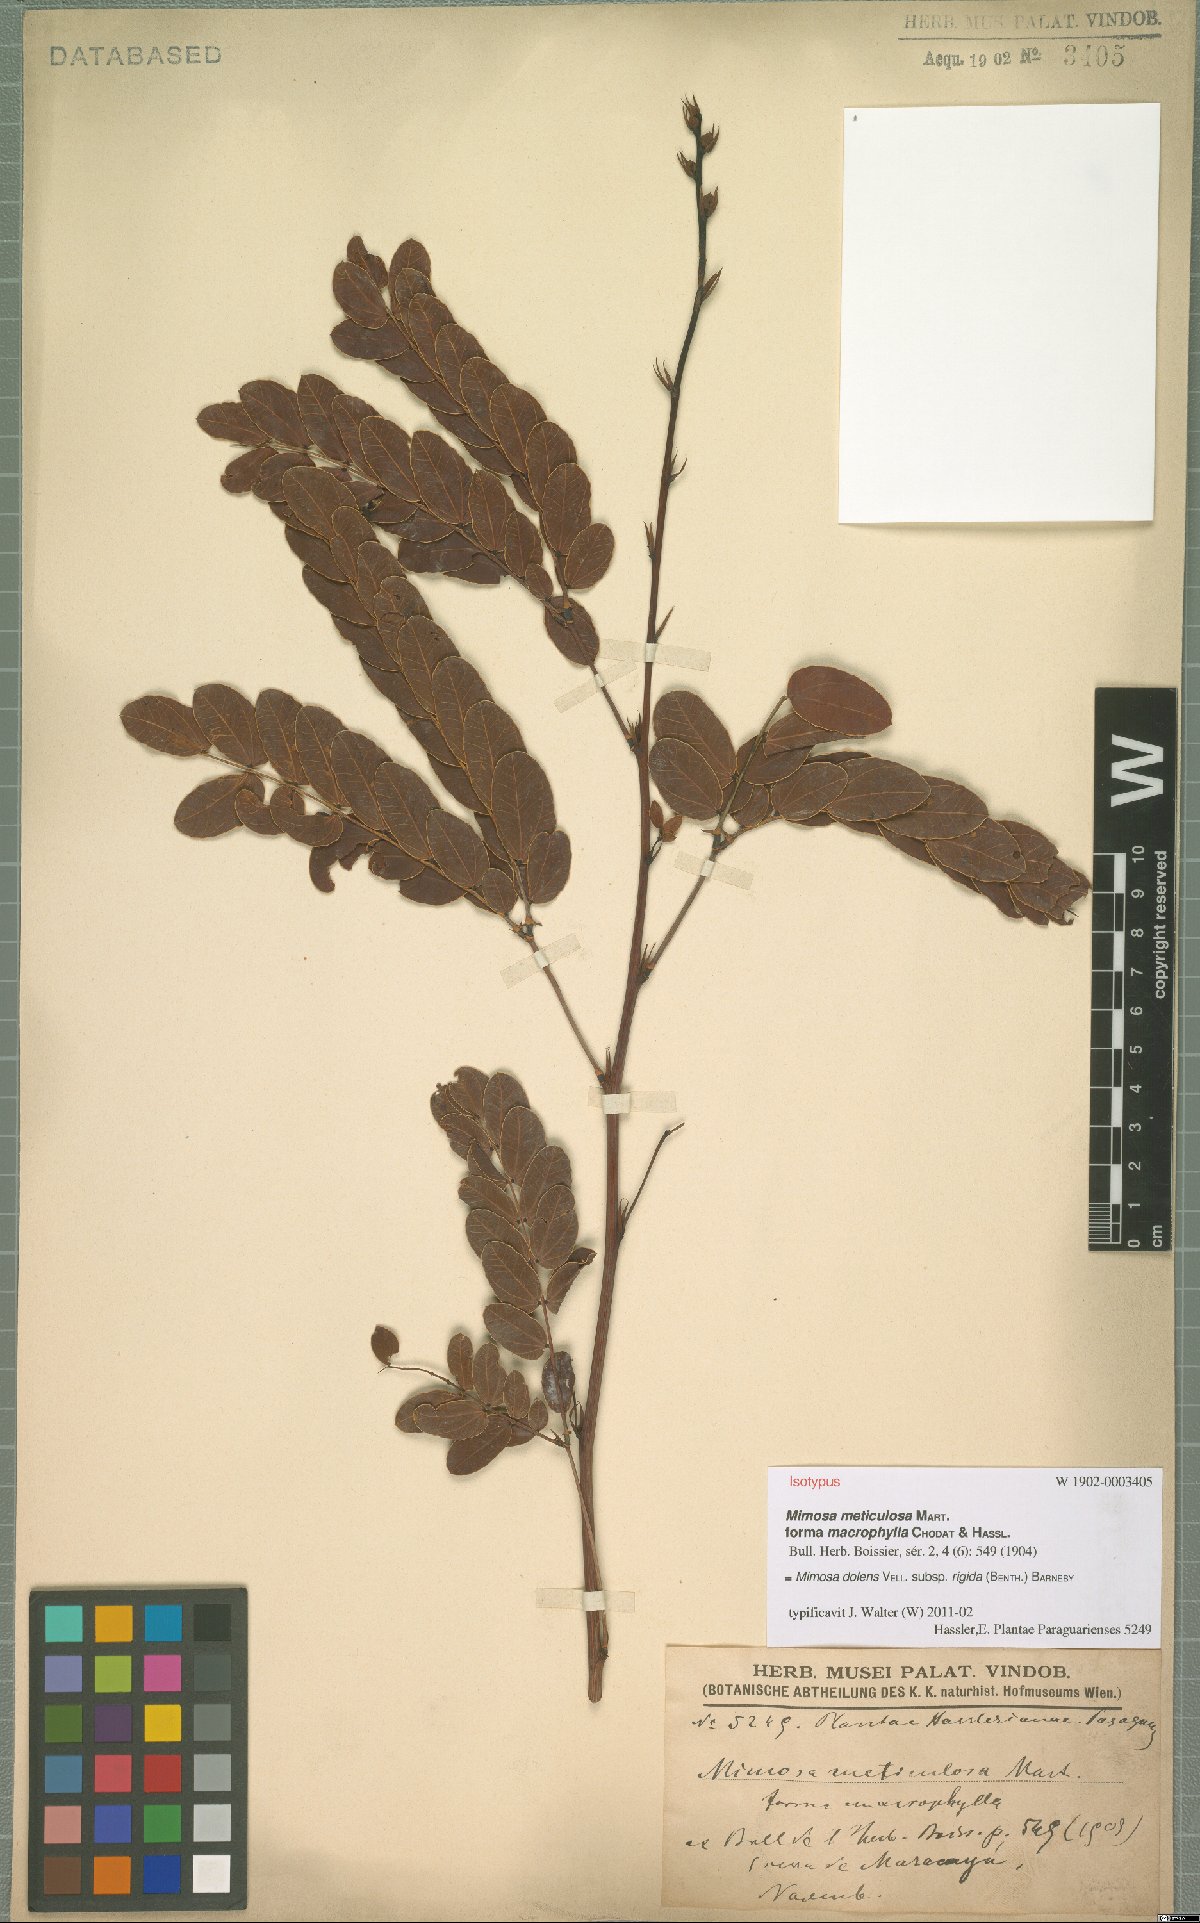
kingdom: Plantae
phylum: Tracheophyta
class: Magnoliopsida
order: Fabales
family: Fabaceae
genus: Mimosa
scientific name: Mimosa dolens
